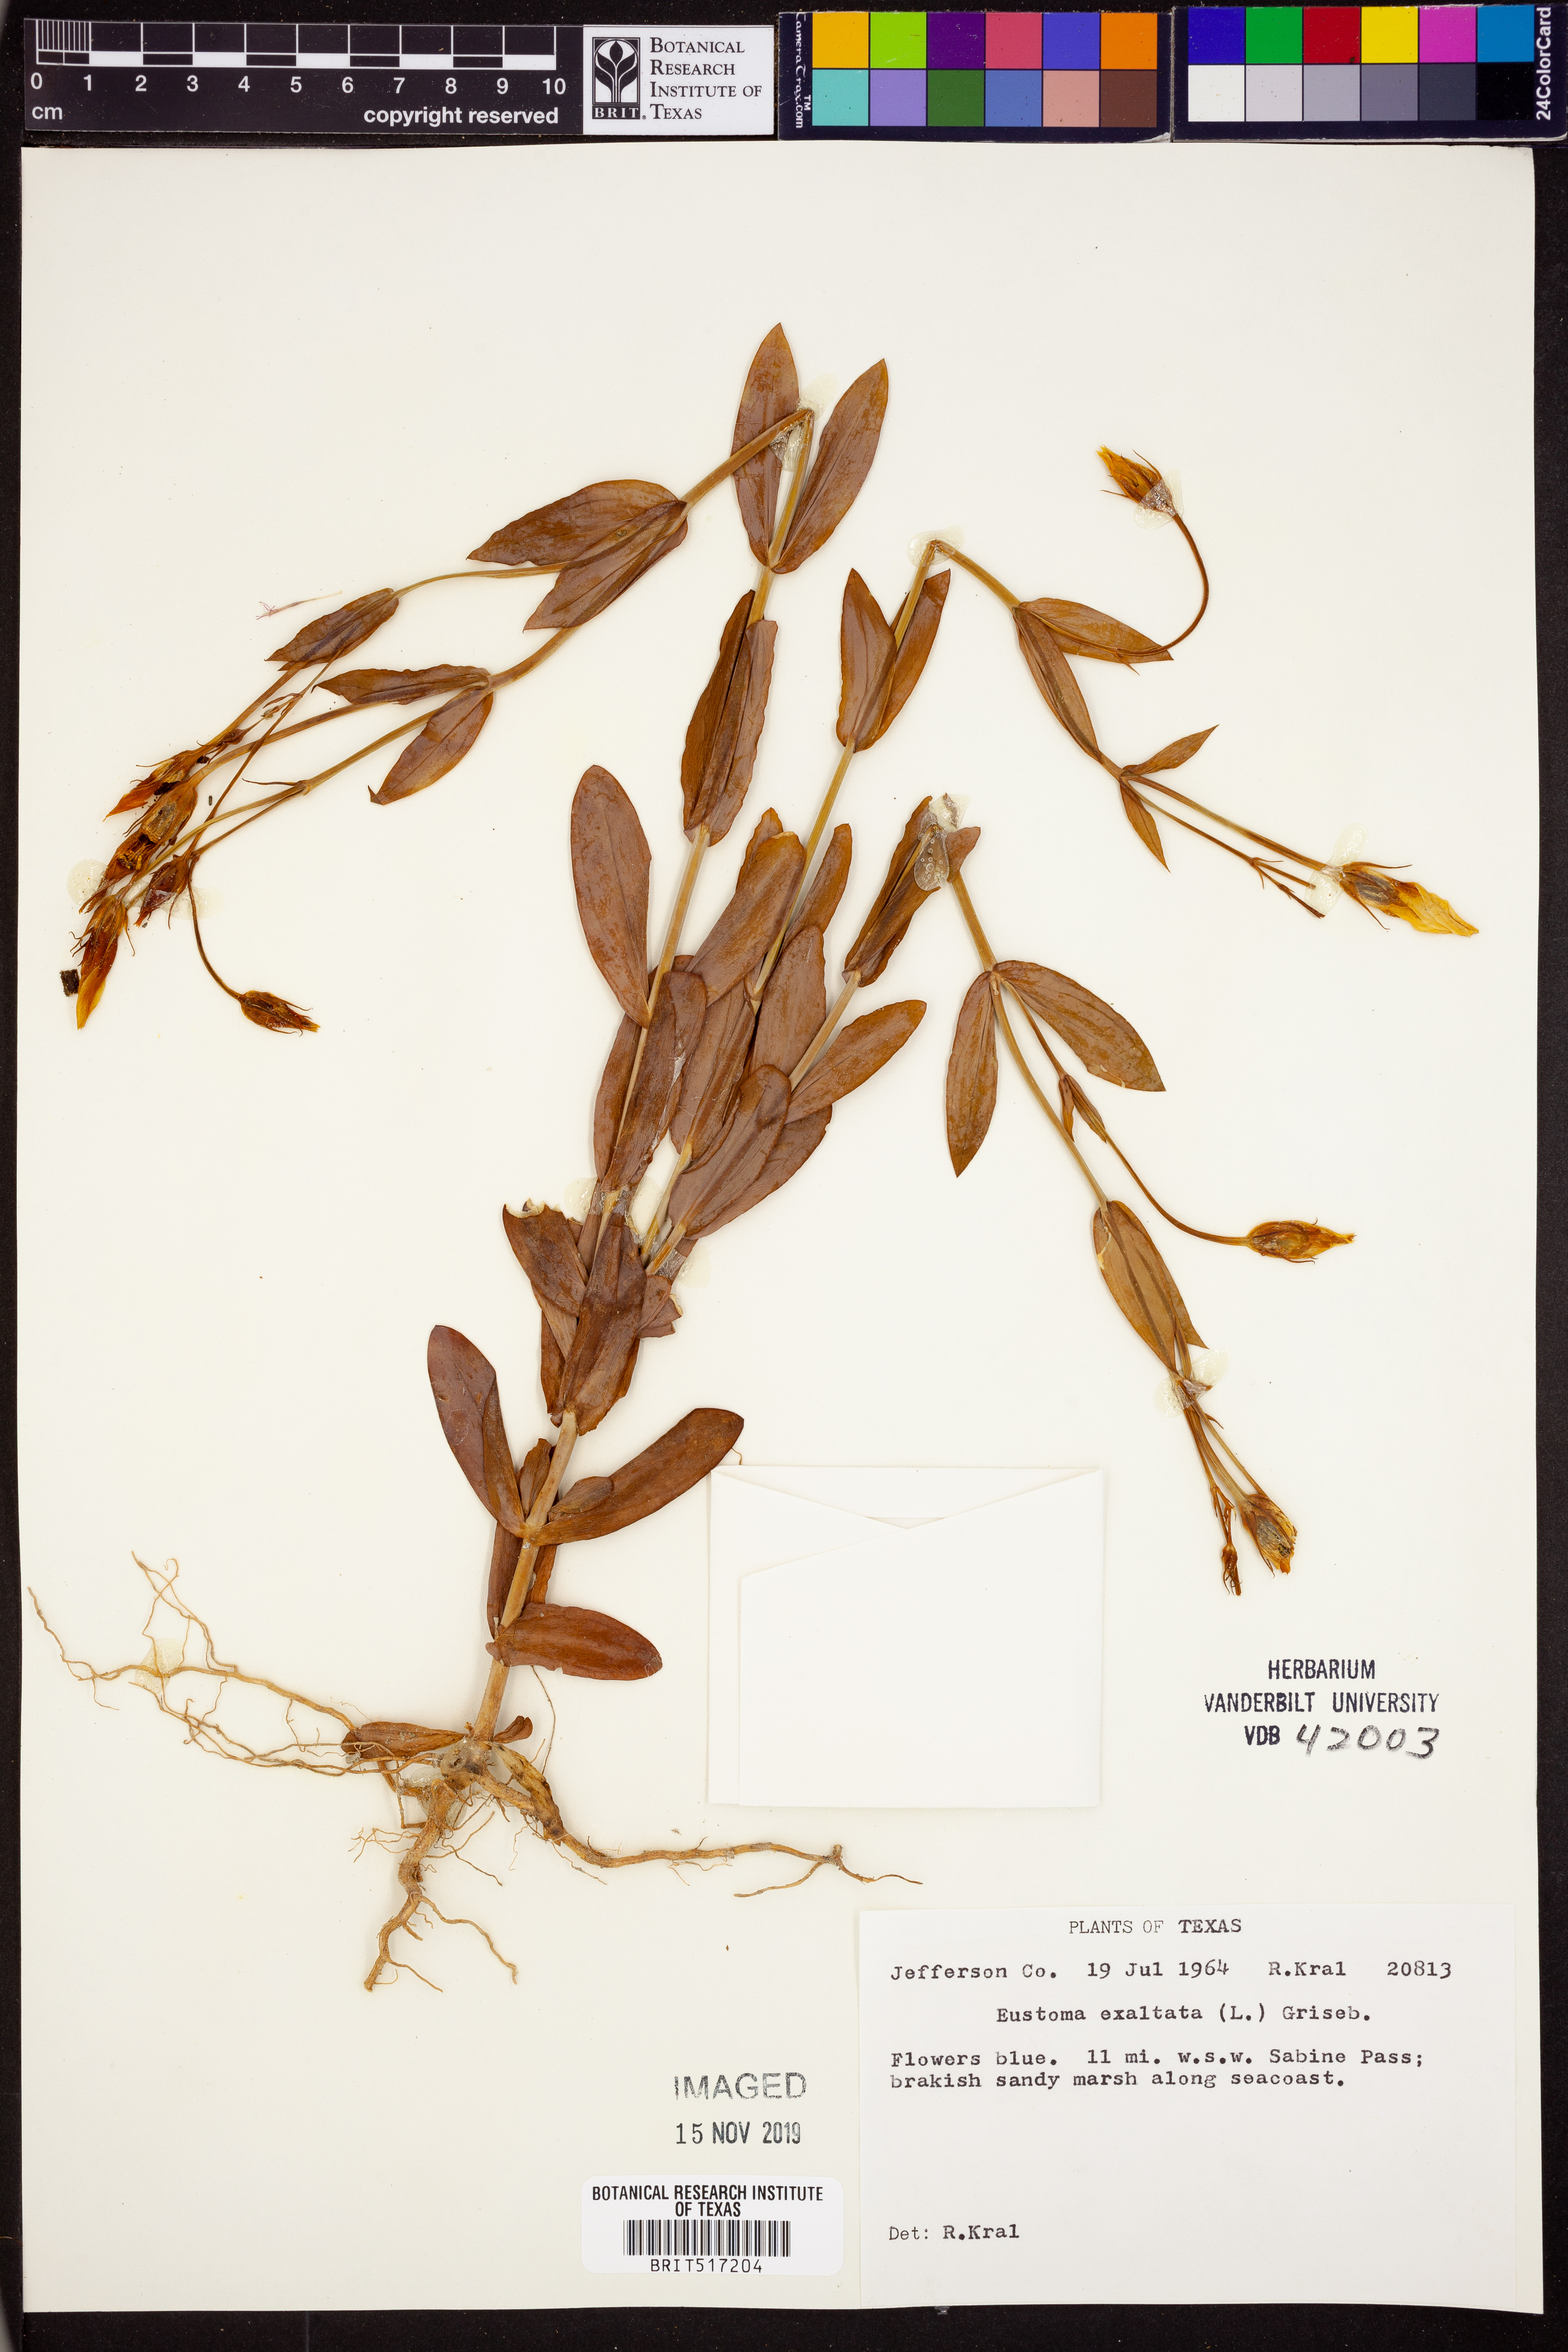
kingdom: Plantae
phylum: Tracheophyta
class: Magnoliopsida
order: Gentianales
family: Gentianaceae
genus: Eustoma
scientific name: Eustoma exaltatum
